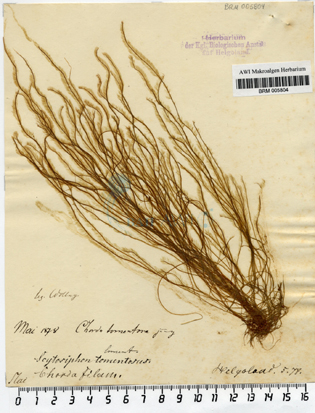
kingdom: Chromista
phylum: Ochrophyta
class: Phaeophyceae
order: Tilopteridales
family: Halosiphonaceae
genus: Halosiphon
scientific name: Halosiphon tomentosus
